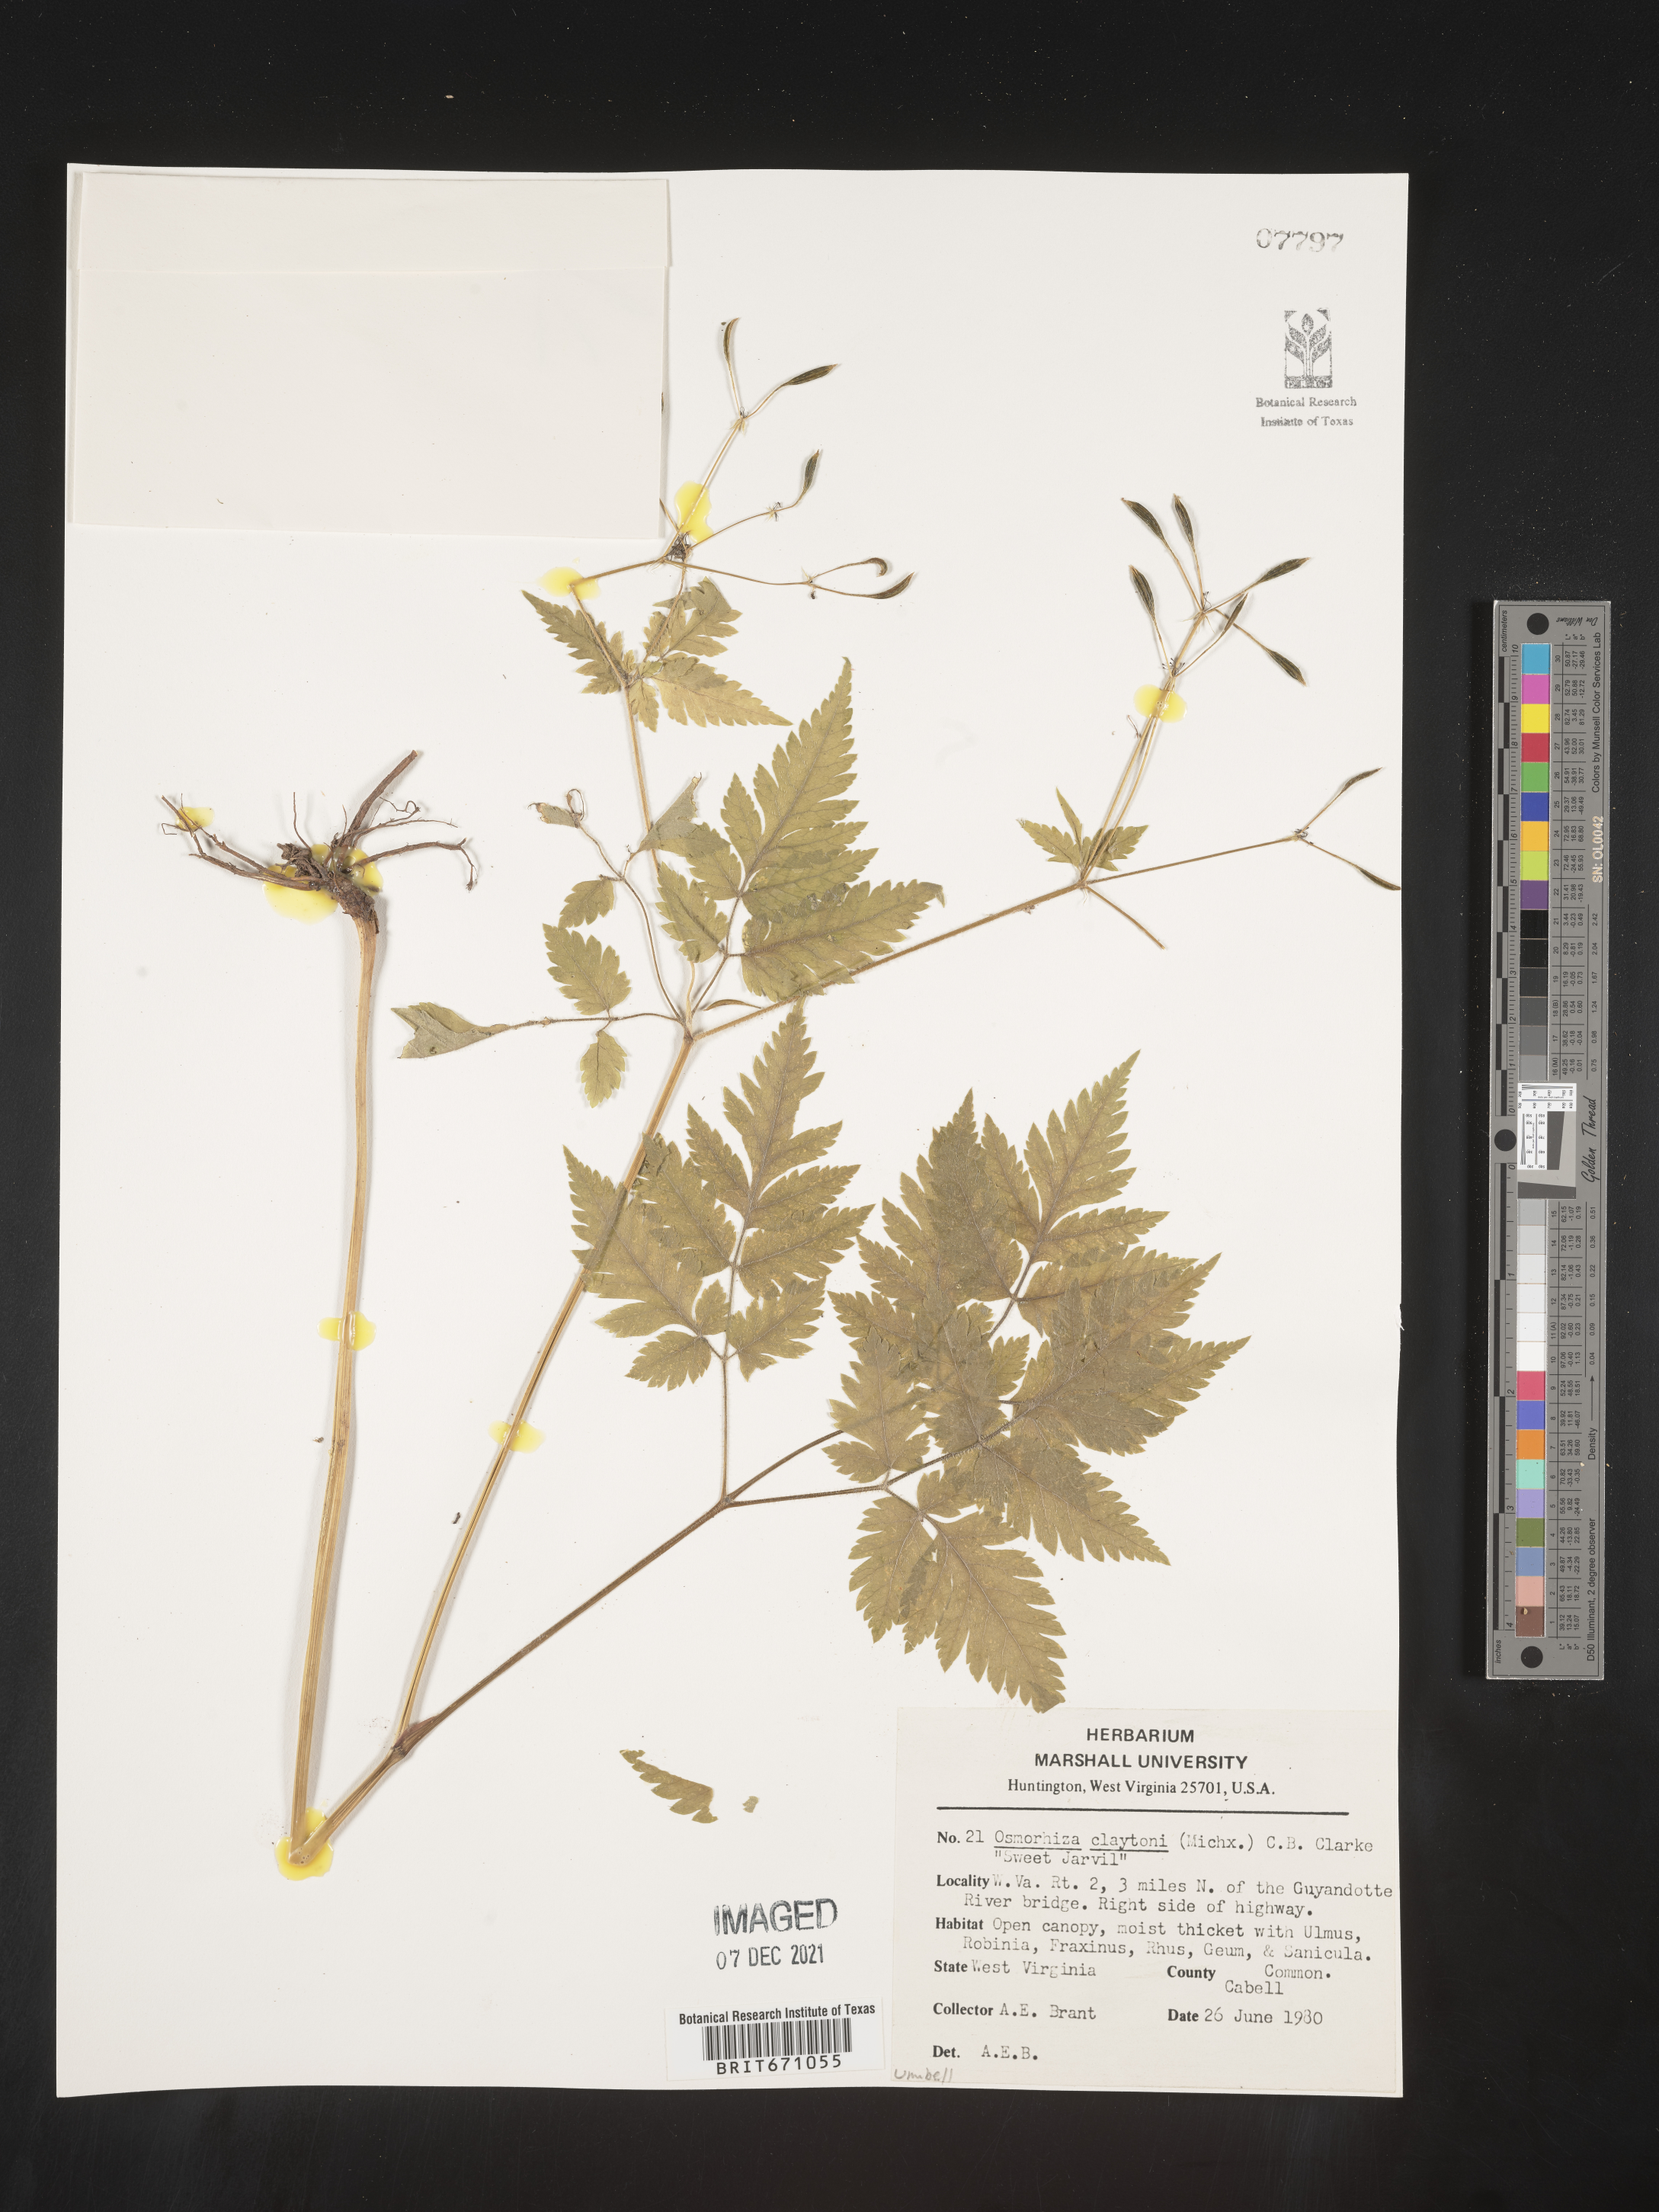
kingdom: Plantae
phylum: Tracheophyta
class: Magnoliopsida
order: Apiales
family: Apiaceae
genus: Osmorhiza
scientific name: Osmorhiza claytonii
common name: Hairy sweet cicely
